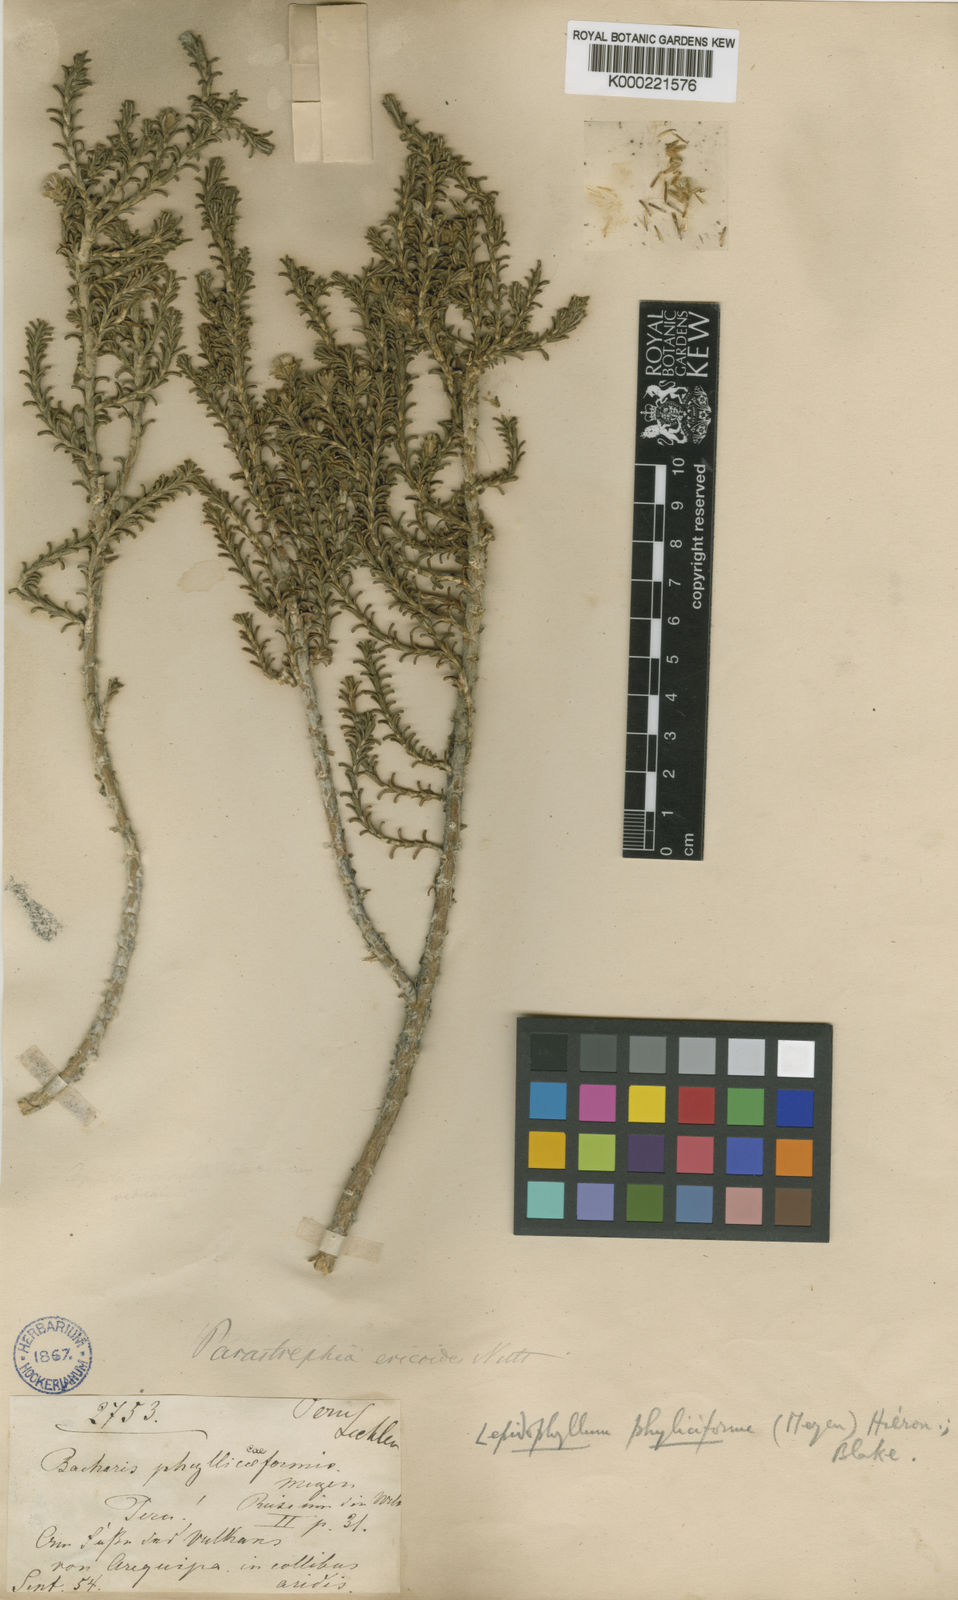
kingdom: Plantae
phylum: Tracheophyta
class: Magnoliopsida
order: Asterales
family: Asteraceae
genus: Parastrephia
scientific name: Parastrephia phyliciformis
